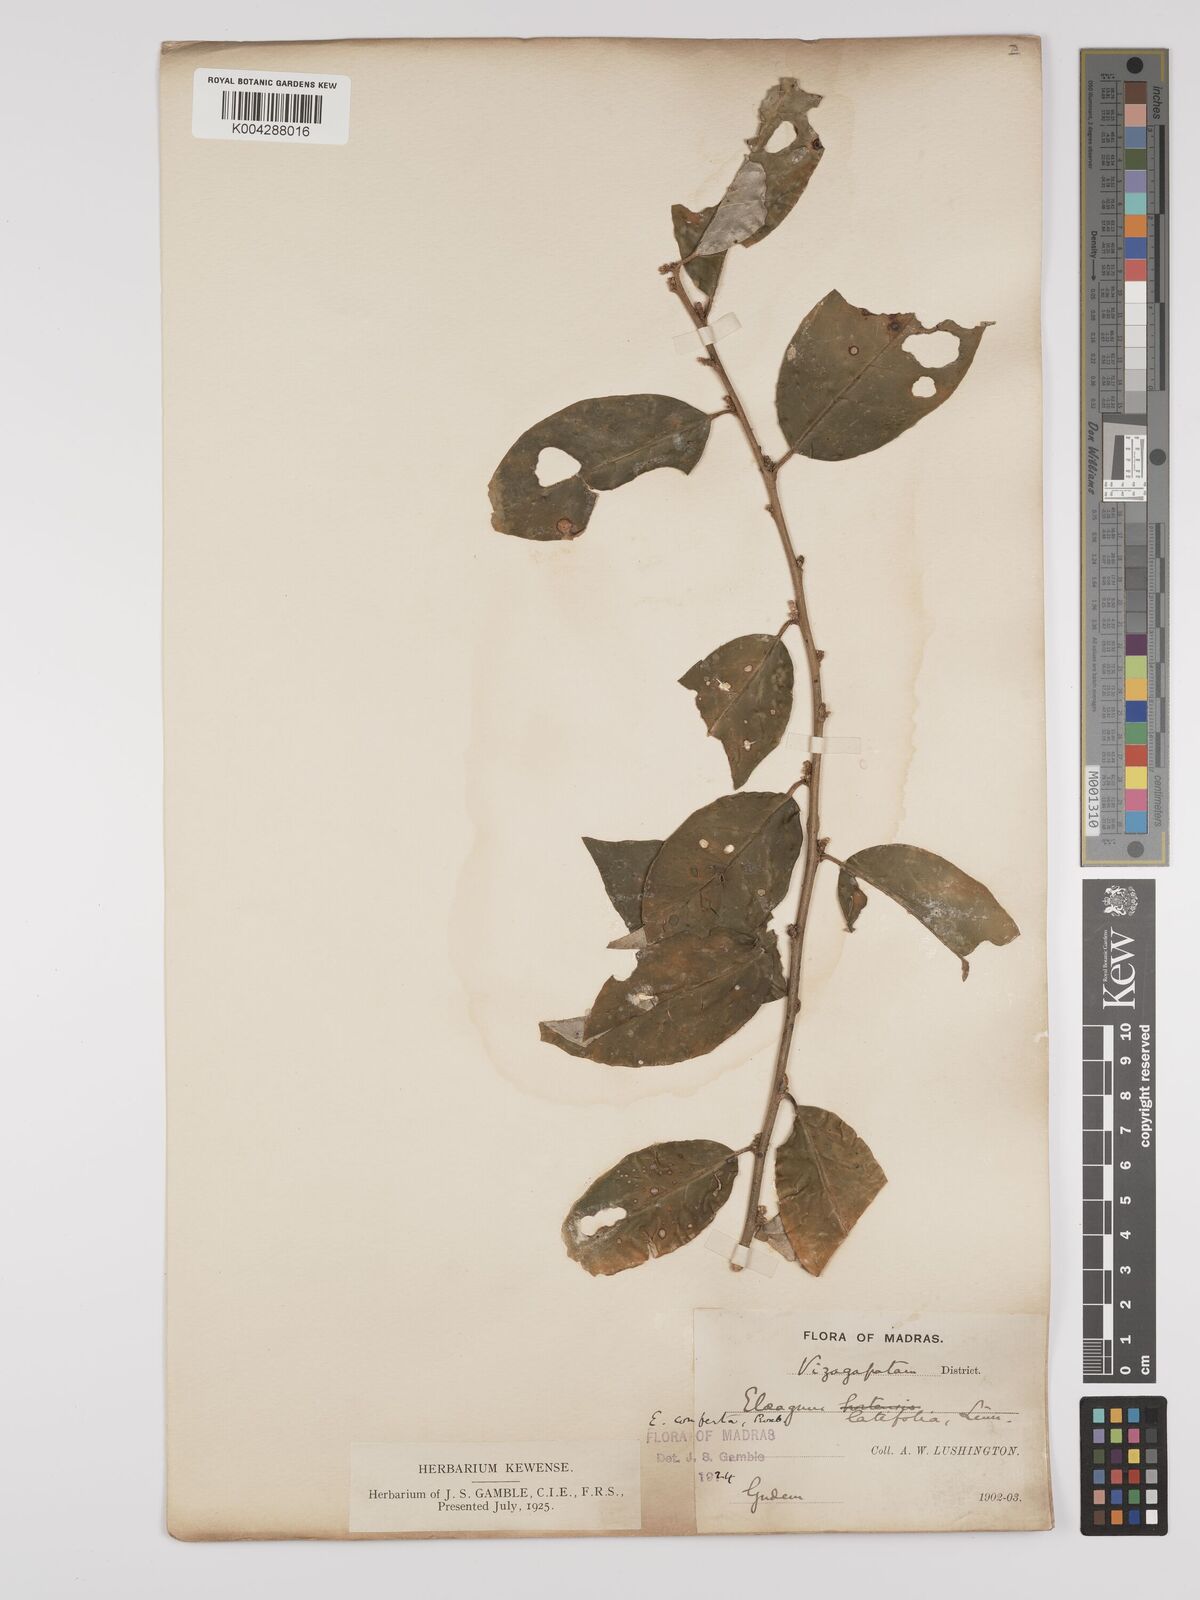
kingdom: Plantae
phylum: Tracheophyta
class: Magnoliopsida
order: Rosales
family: Elaeagnaceae
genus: Elaeagnus
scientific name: Elaeagnus latifolia
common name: Oleaster
